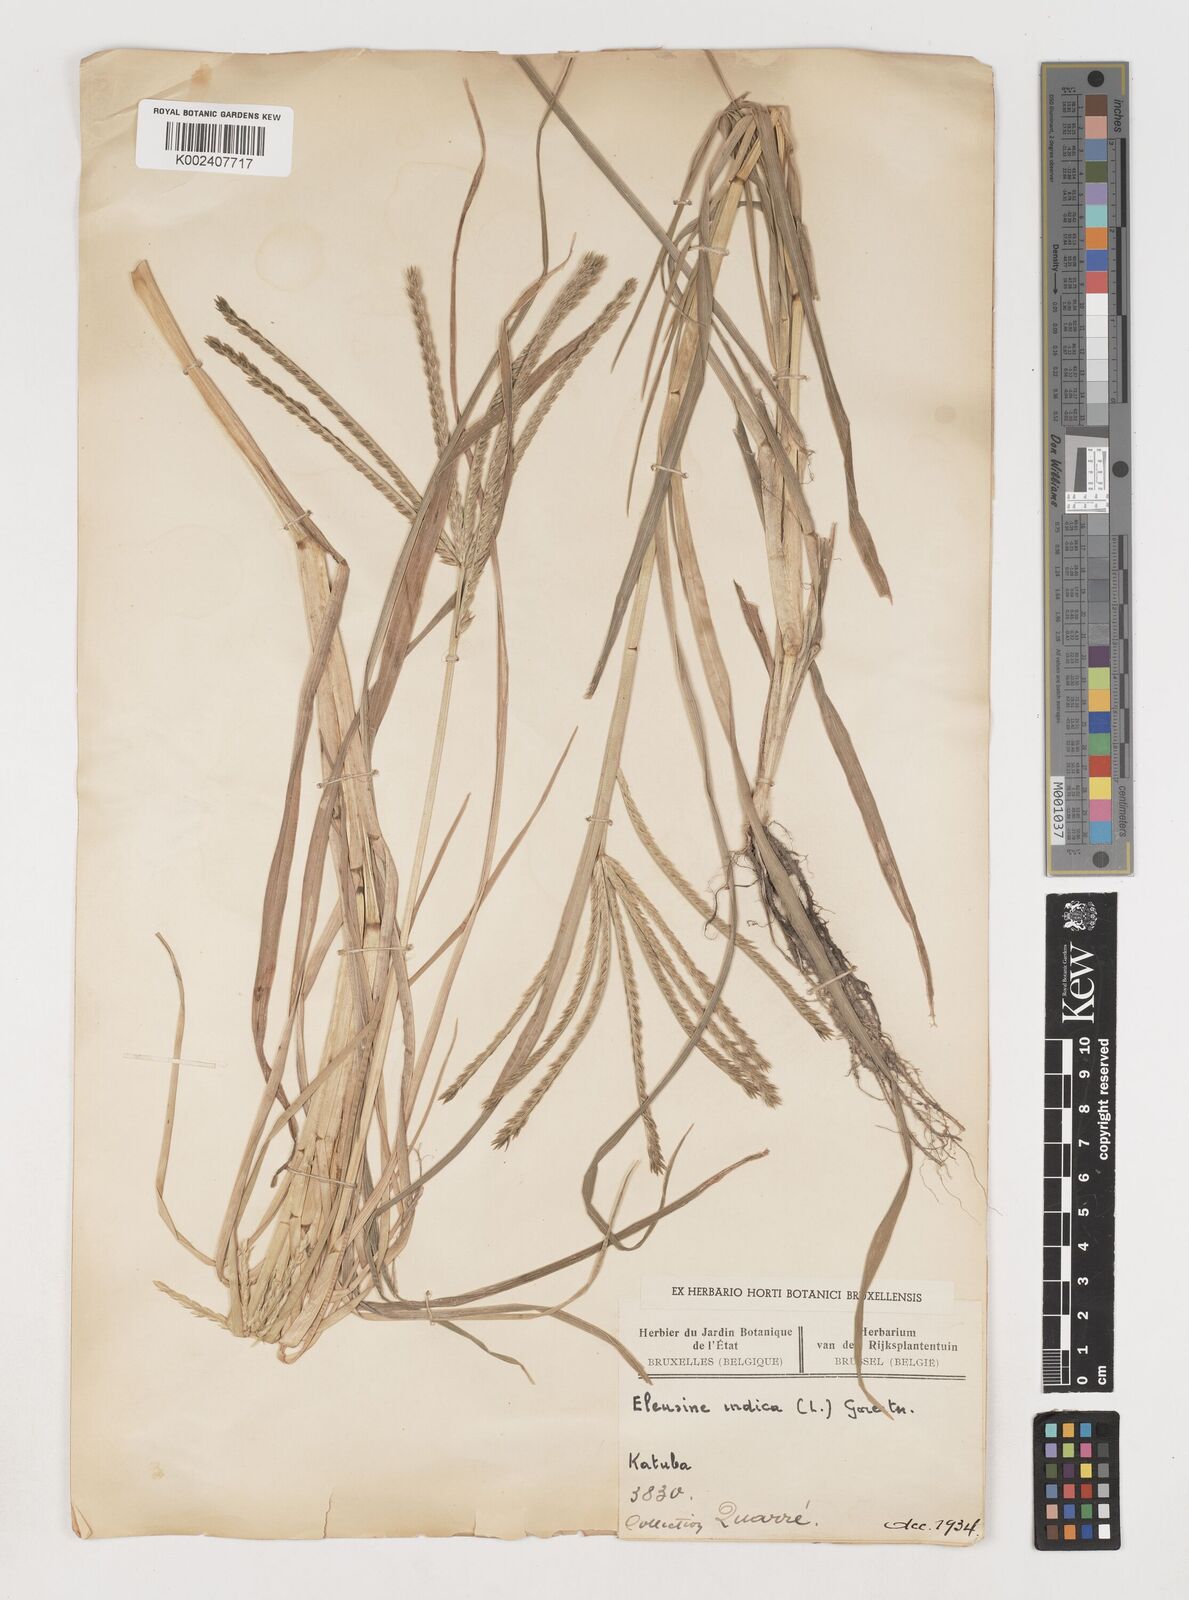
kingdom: Plantae
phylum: Tracheophyta
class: Liliopsida
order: Poales
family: Poaceae
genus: Eleusine
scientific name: Eleusine indica
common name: Yard-grass
